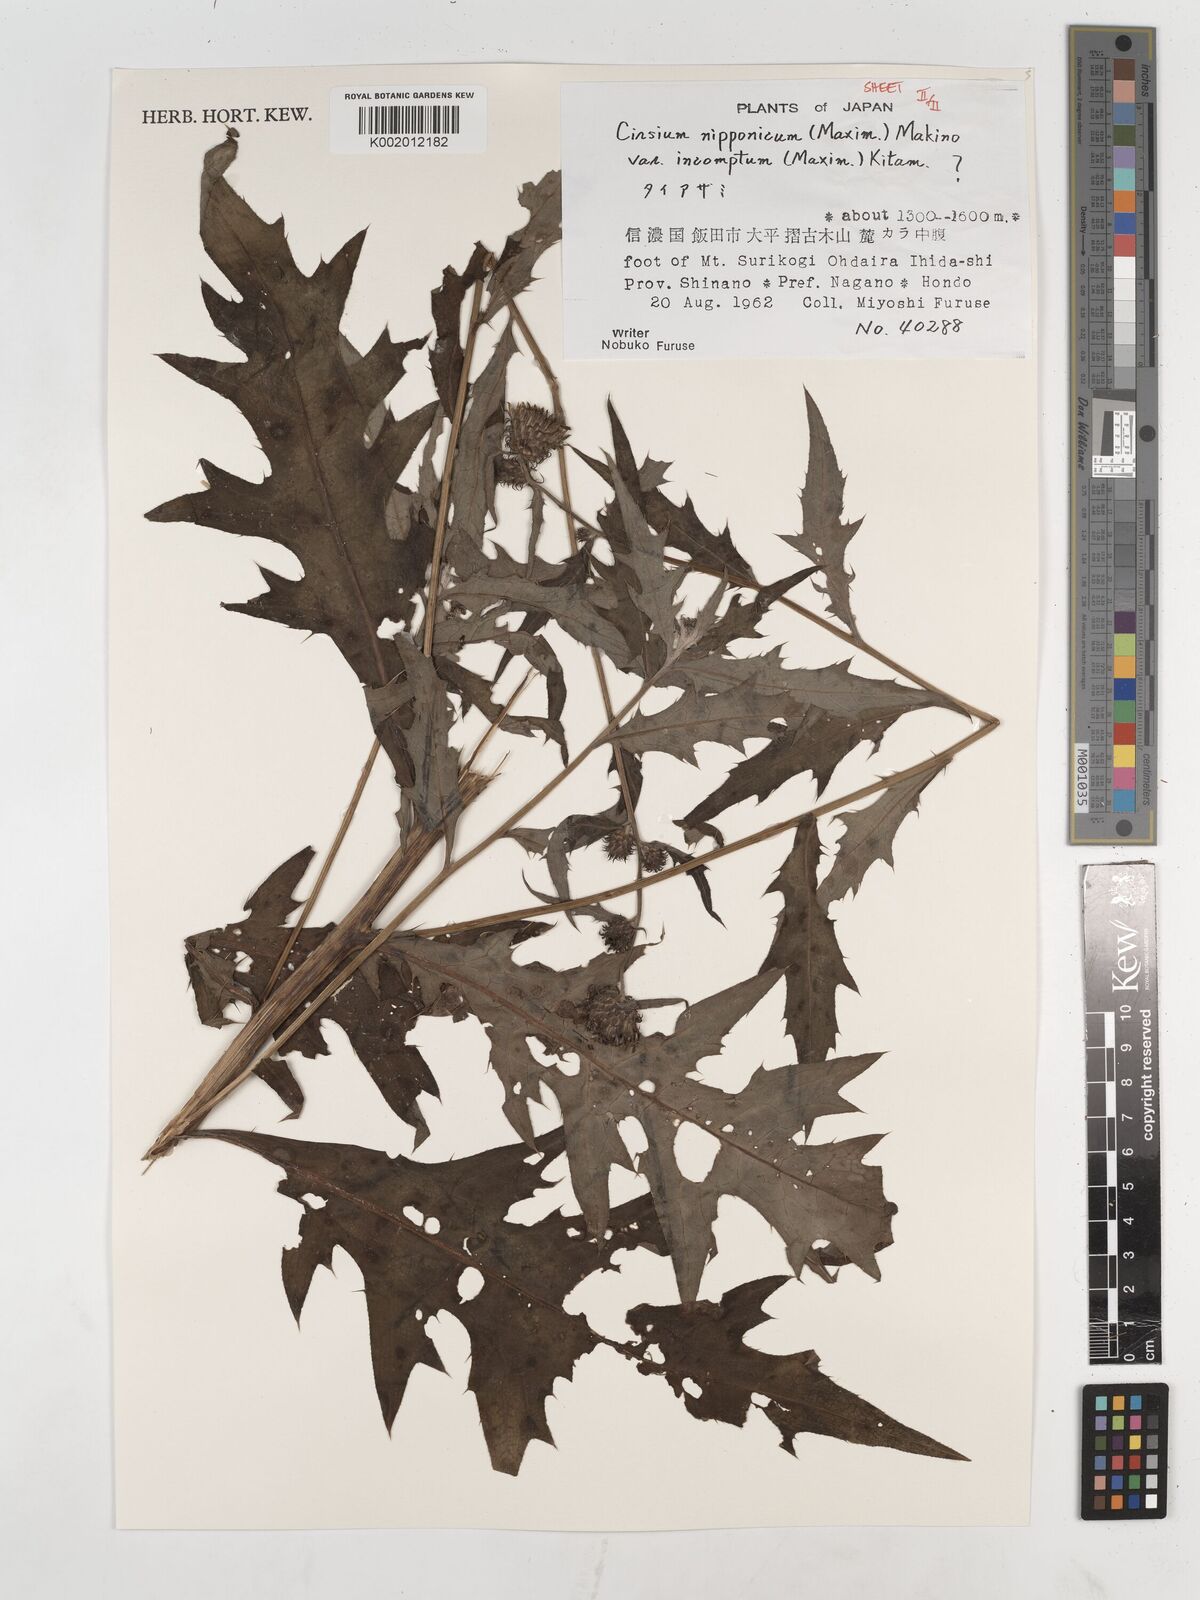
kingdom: Plantae
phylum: Tracheophyta
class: Magnoliopsida
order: Asterales
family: Asteraceae
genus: Cirsium
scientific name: Cirsium nipponicum
